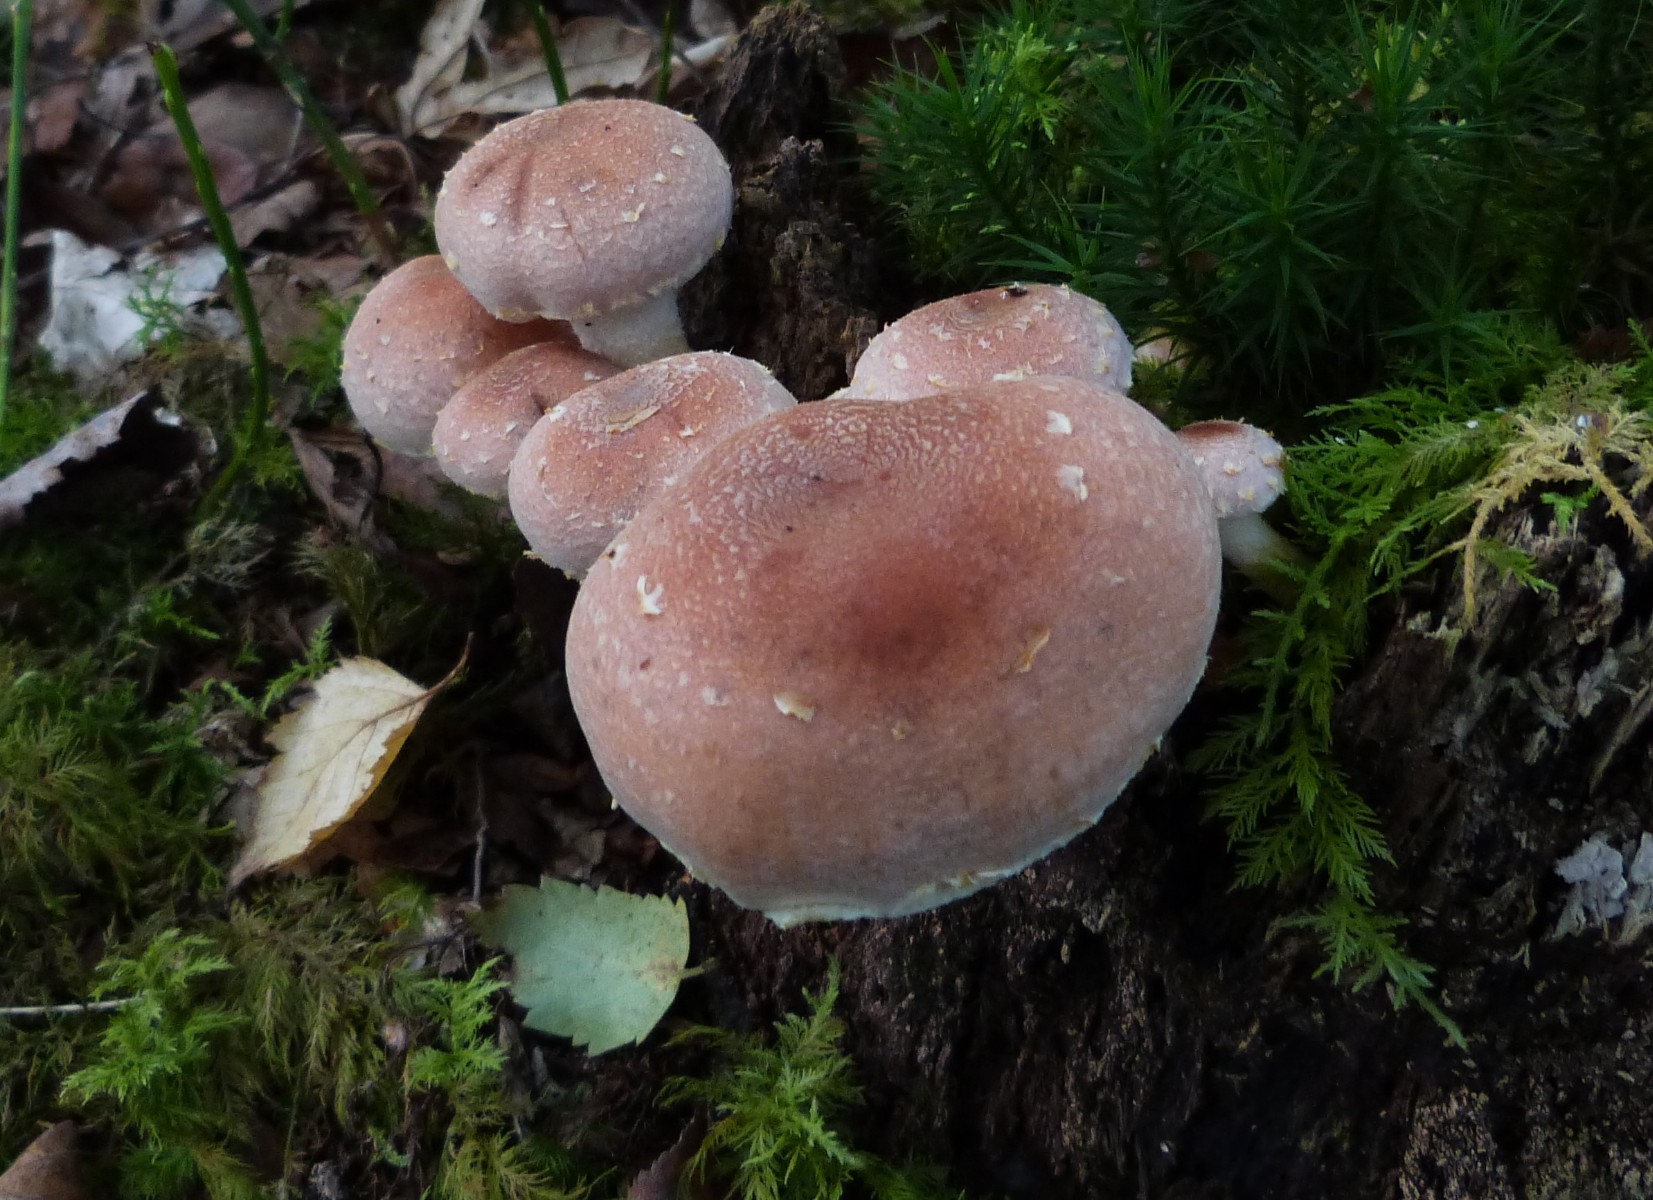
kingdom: Fungi
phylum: Basidiomycota
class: Agaricomycetes
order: Agaricales
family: Strophariaceae
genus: Hypholoma
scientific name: Hypholoma lateritium
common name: teglrød svovlhat
